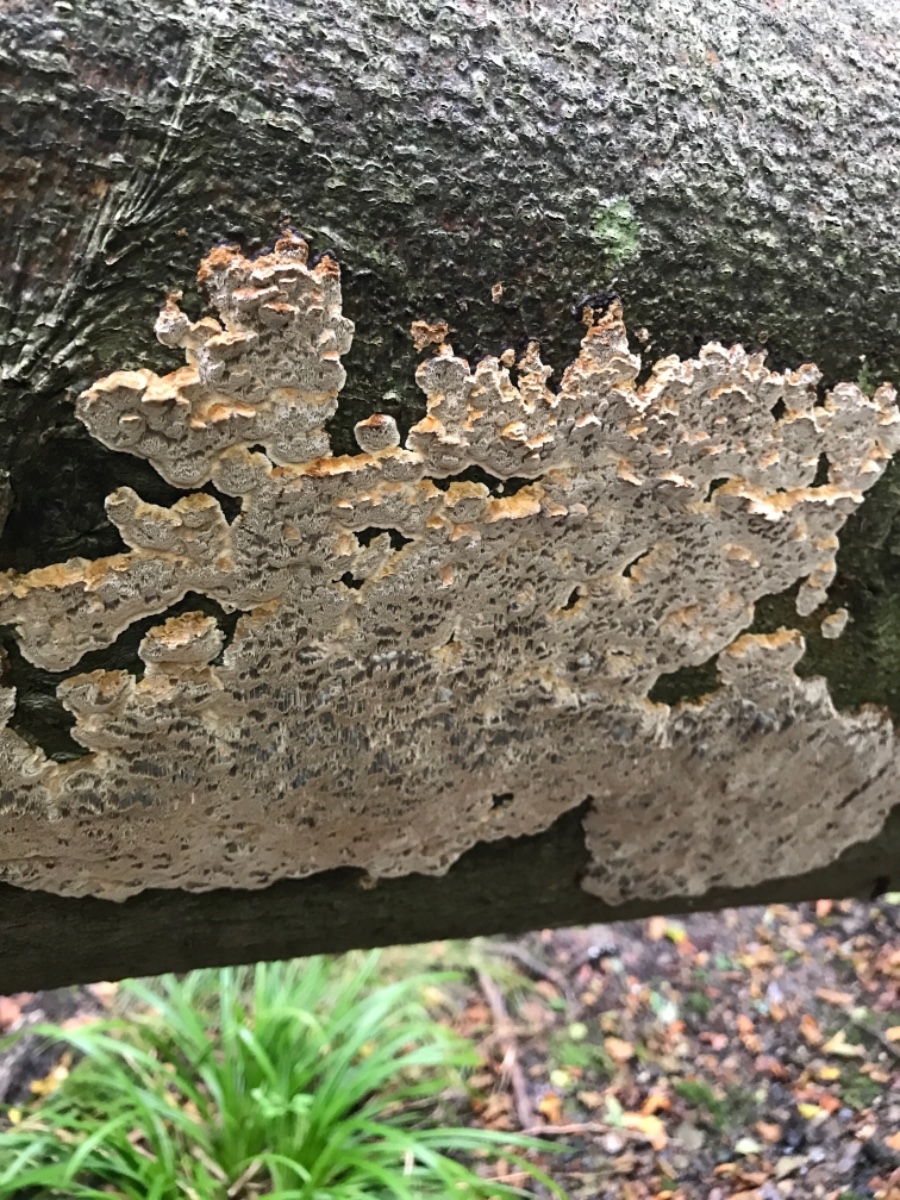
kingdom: Fungi
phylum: Basidiomycota
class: Agaricomycetes
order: Hymenochaetales
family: Hymenochaetaceae
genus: Mensularia
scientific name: Mensularia nodulosa
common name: bøge-spejlporesvamp
